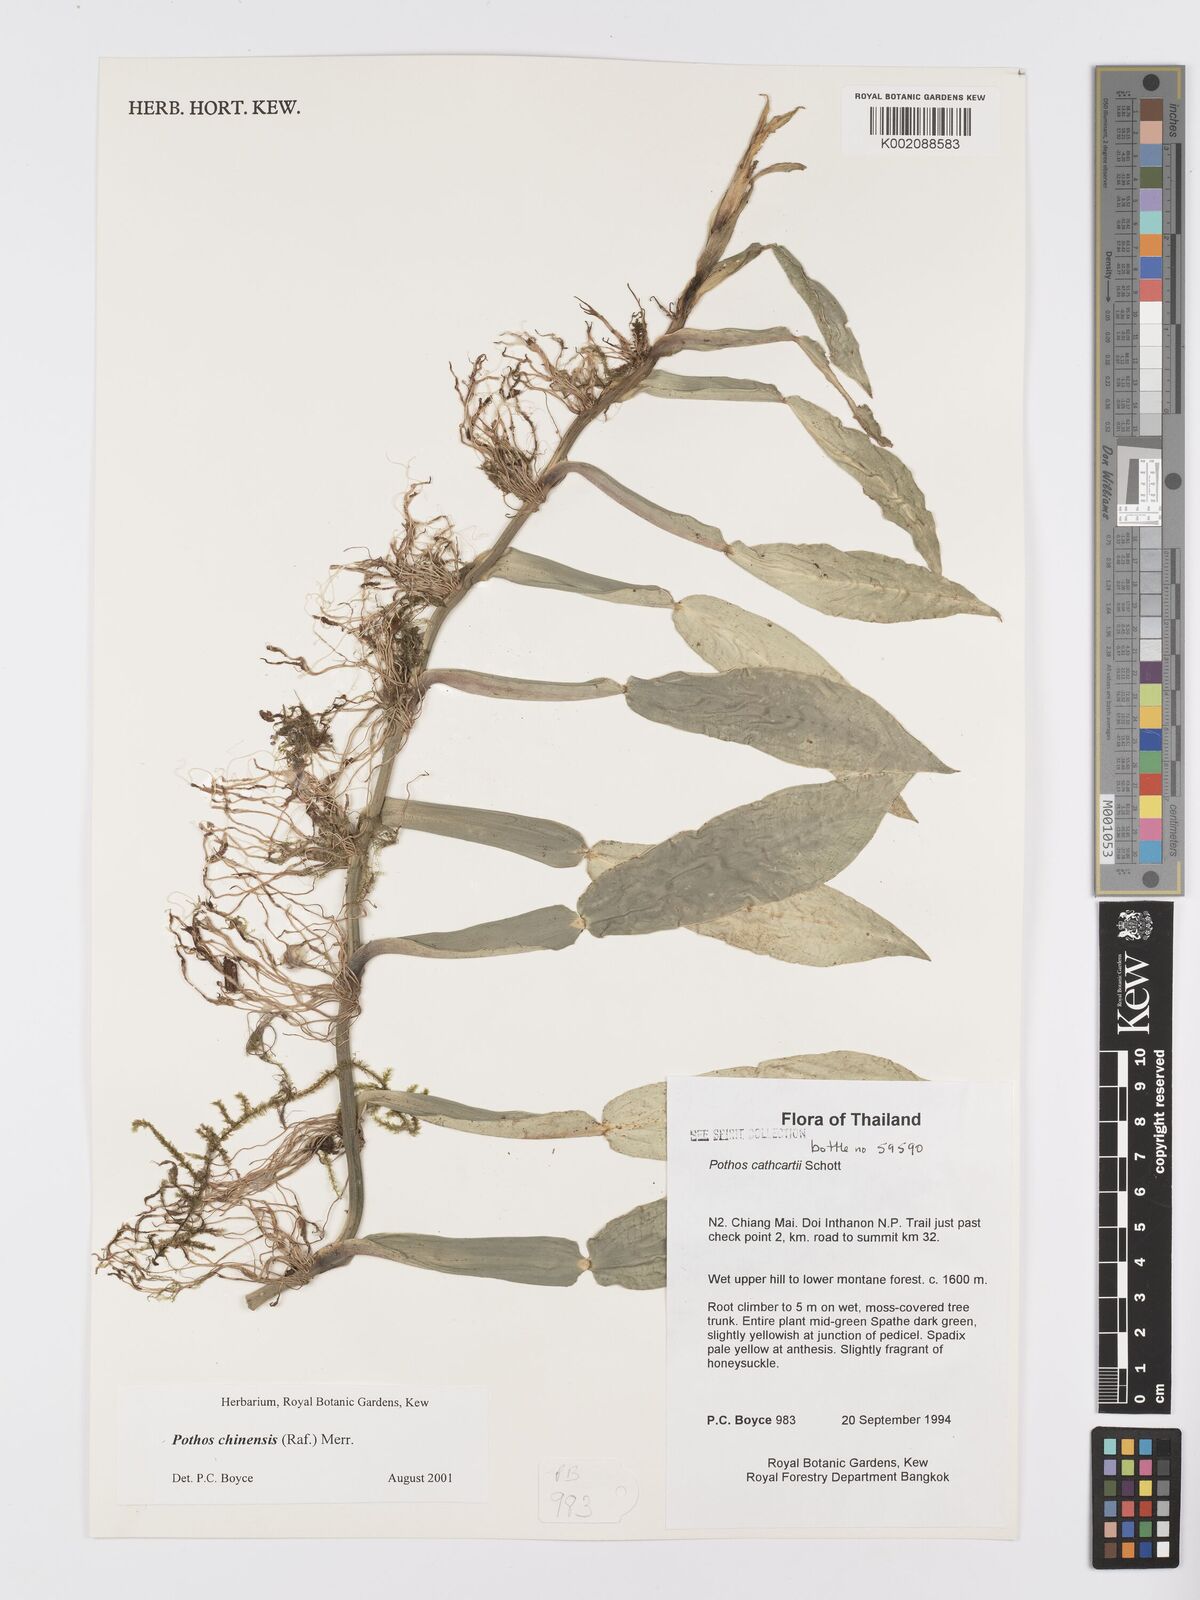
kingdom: Plantae
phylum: Tracheophyta
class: Liliopsida
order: Alismatales
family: Araceae
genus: Pothos
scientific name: Pothos chinensis
